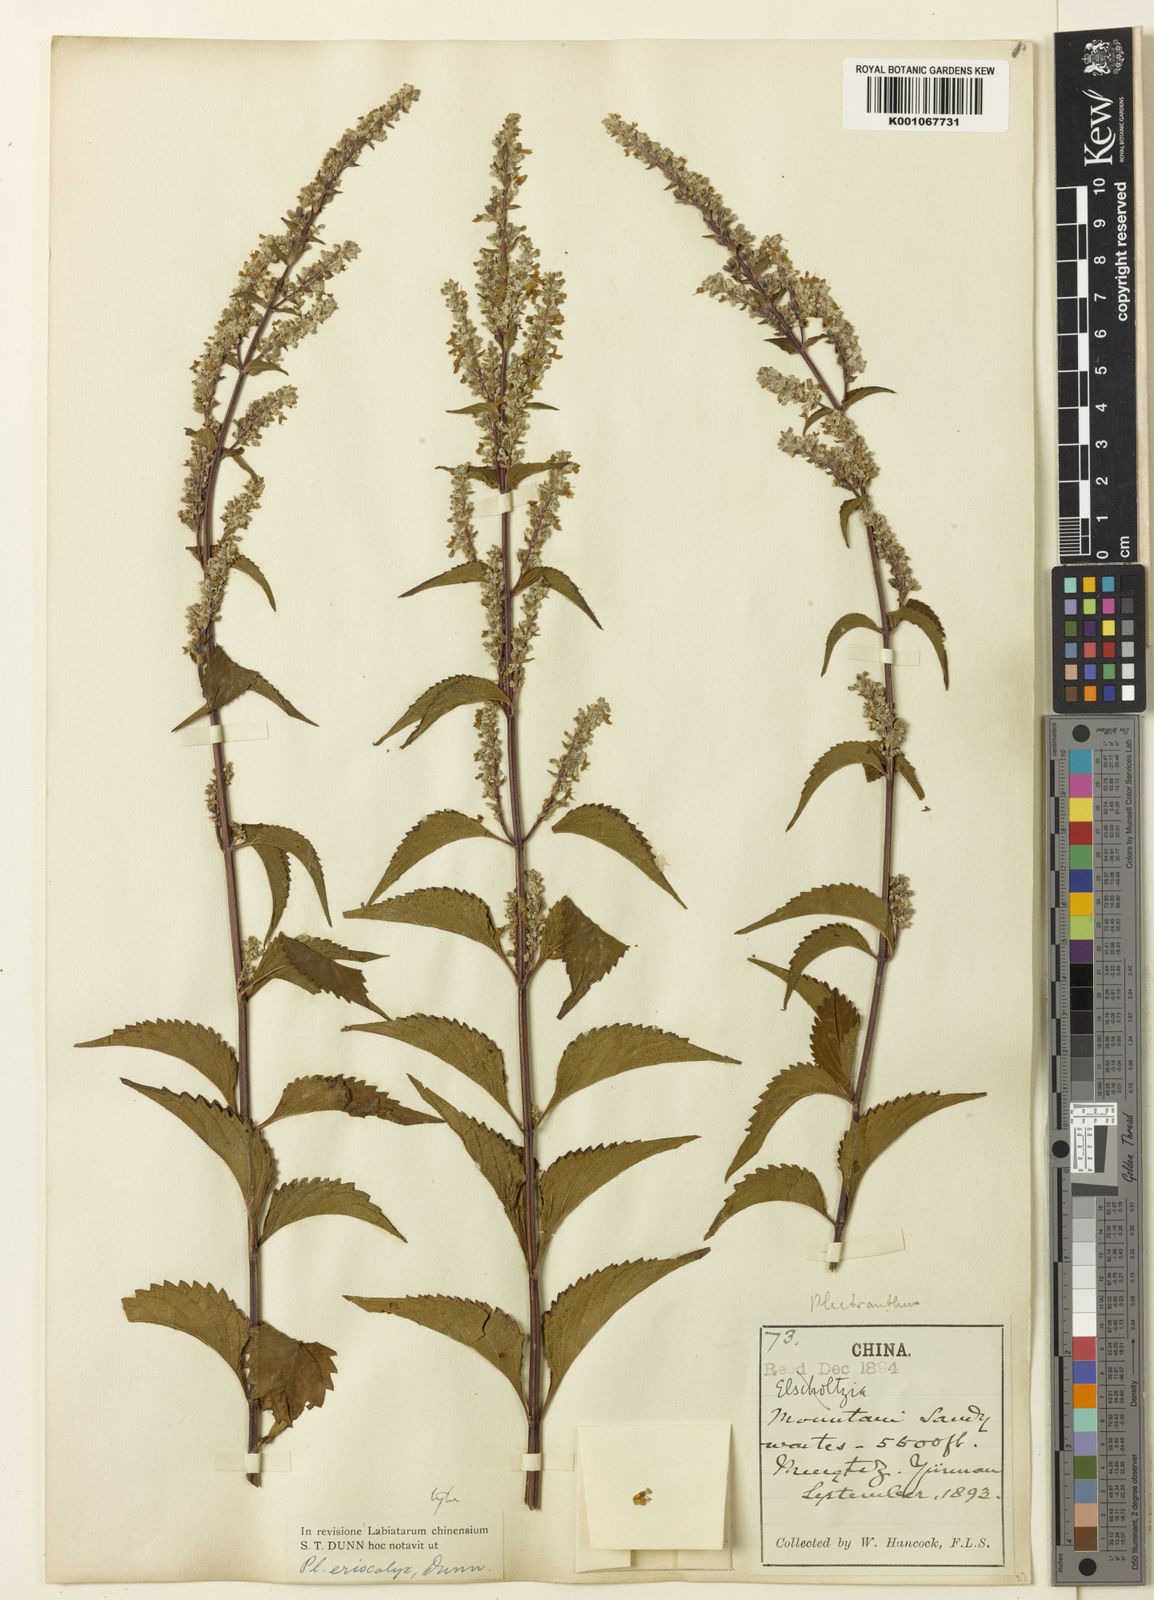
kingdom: Plantae
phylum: Tracheophyta
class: Magnoliopsida
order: Lamiales
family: Lamiaceae
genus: Isodon
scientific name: Isodon
